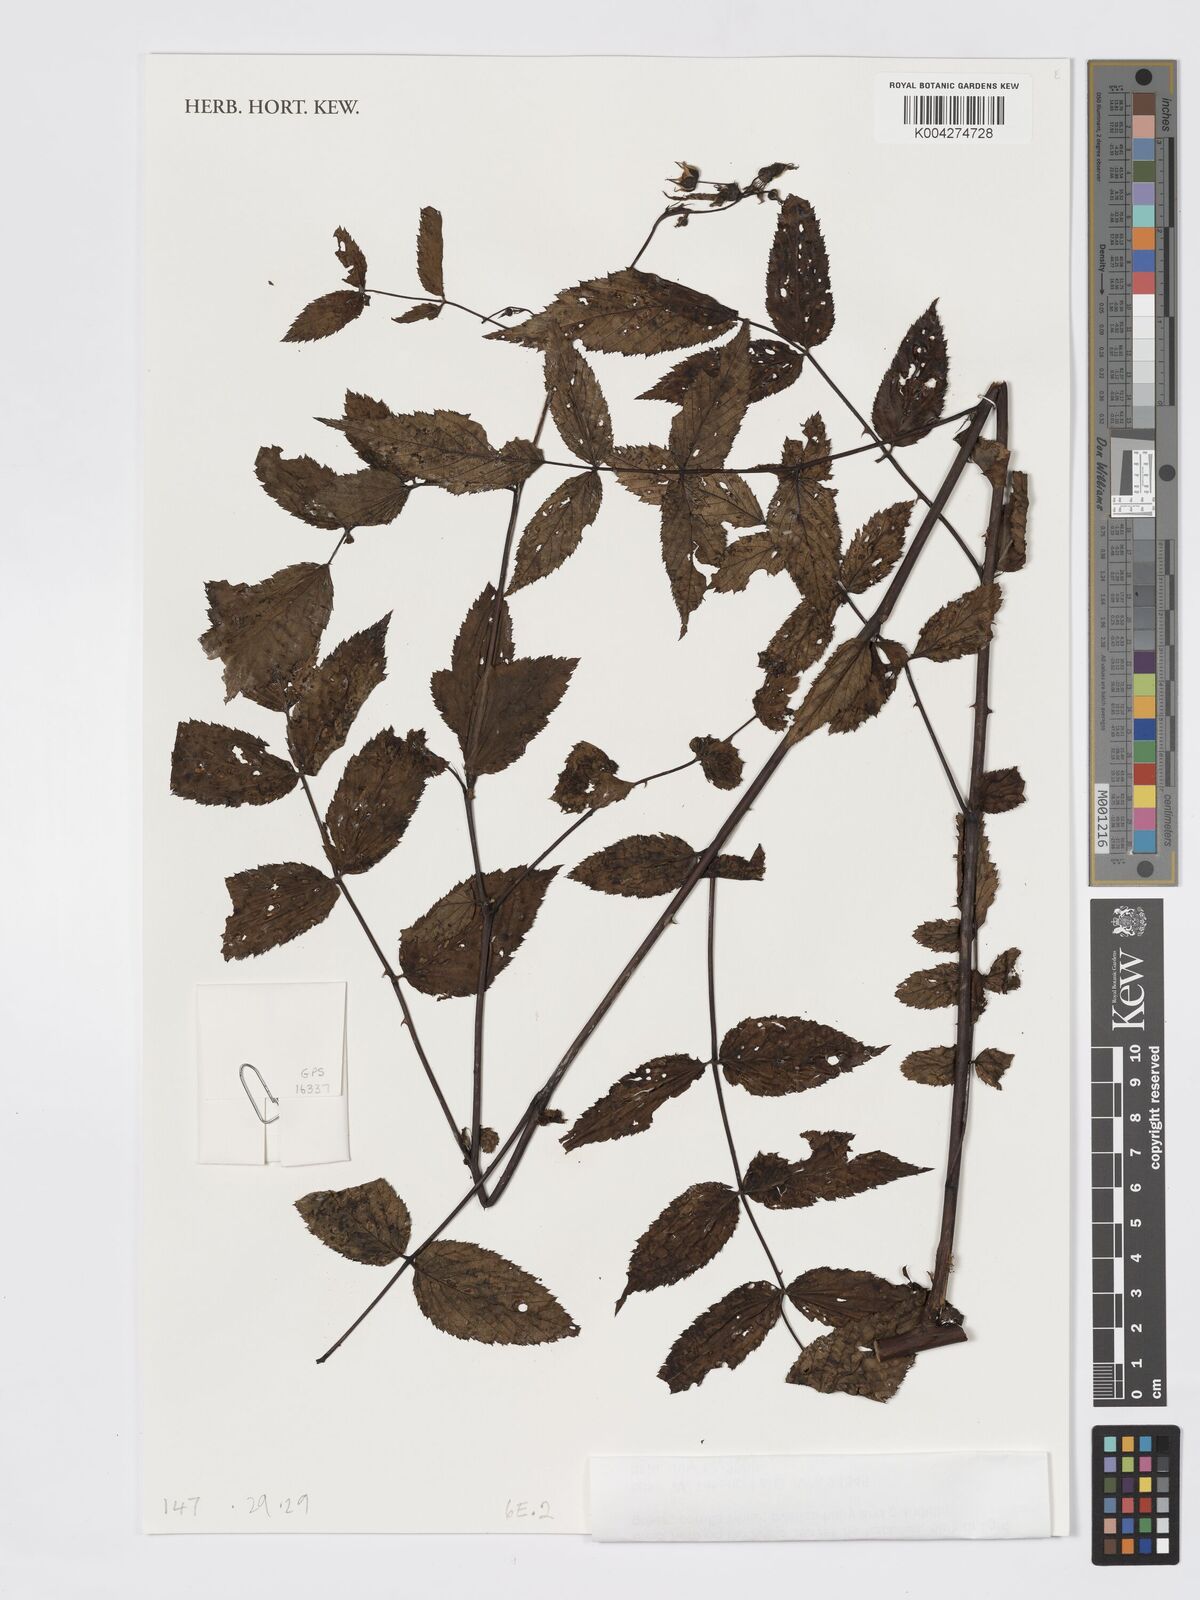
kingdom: Plantae
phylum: Tracheophyta
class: Magnoliopsida
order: Rosales
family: Rosaceae
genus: Rubus
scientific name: Rubus chrysogaeus
